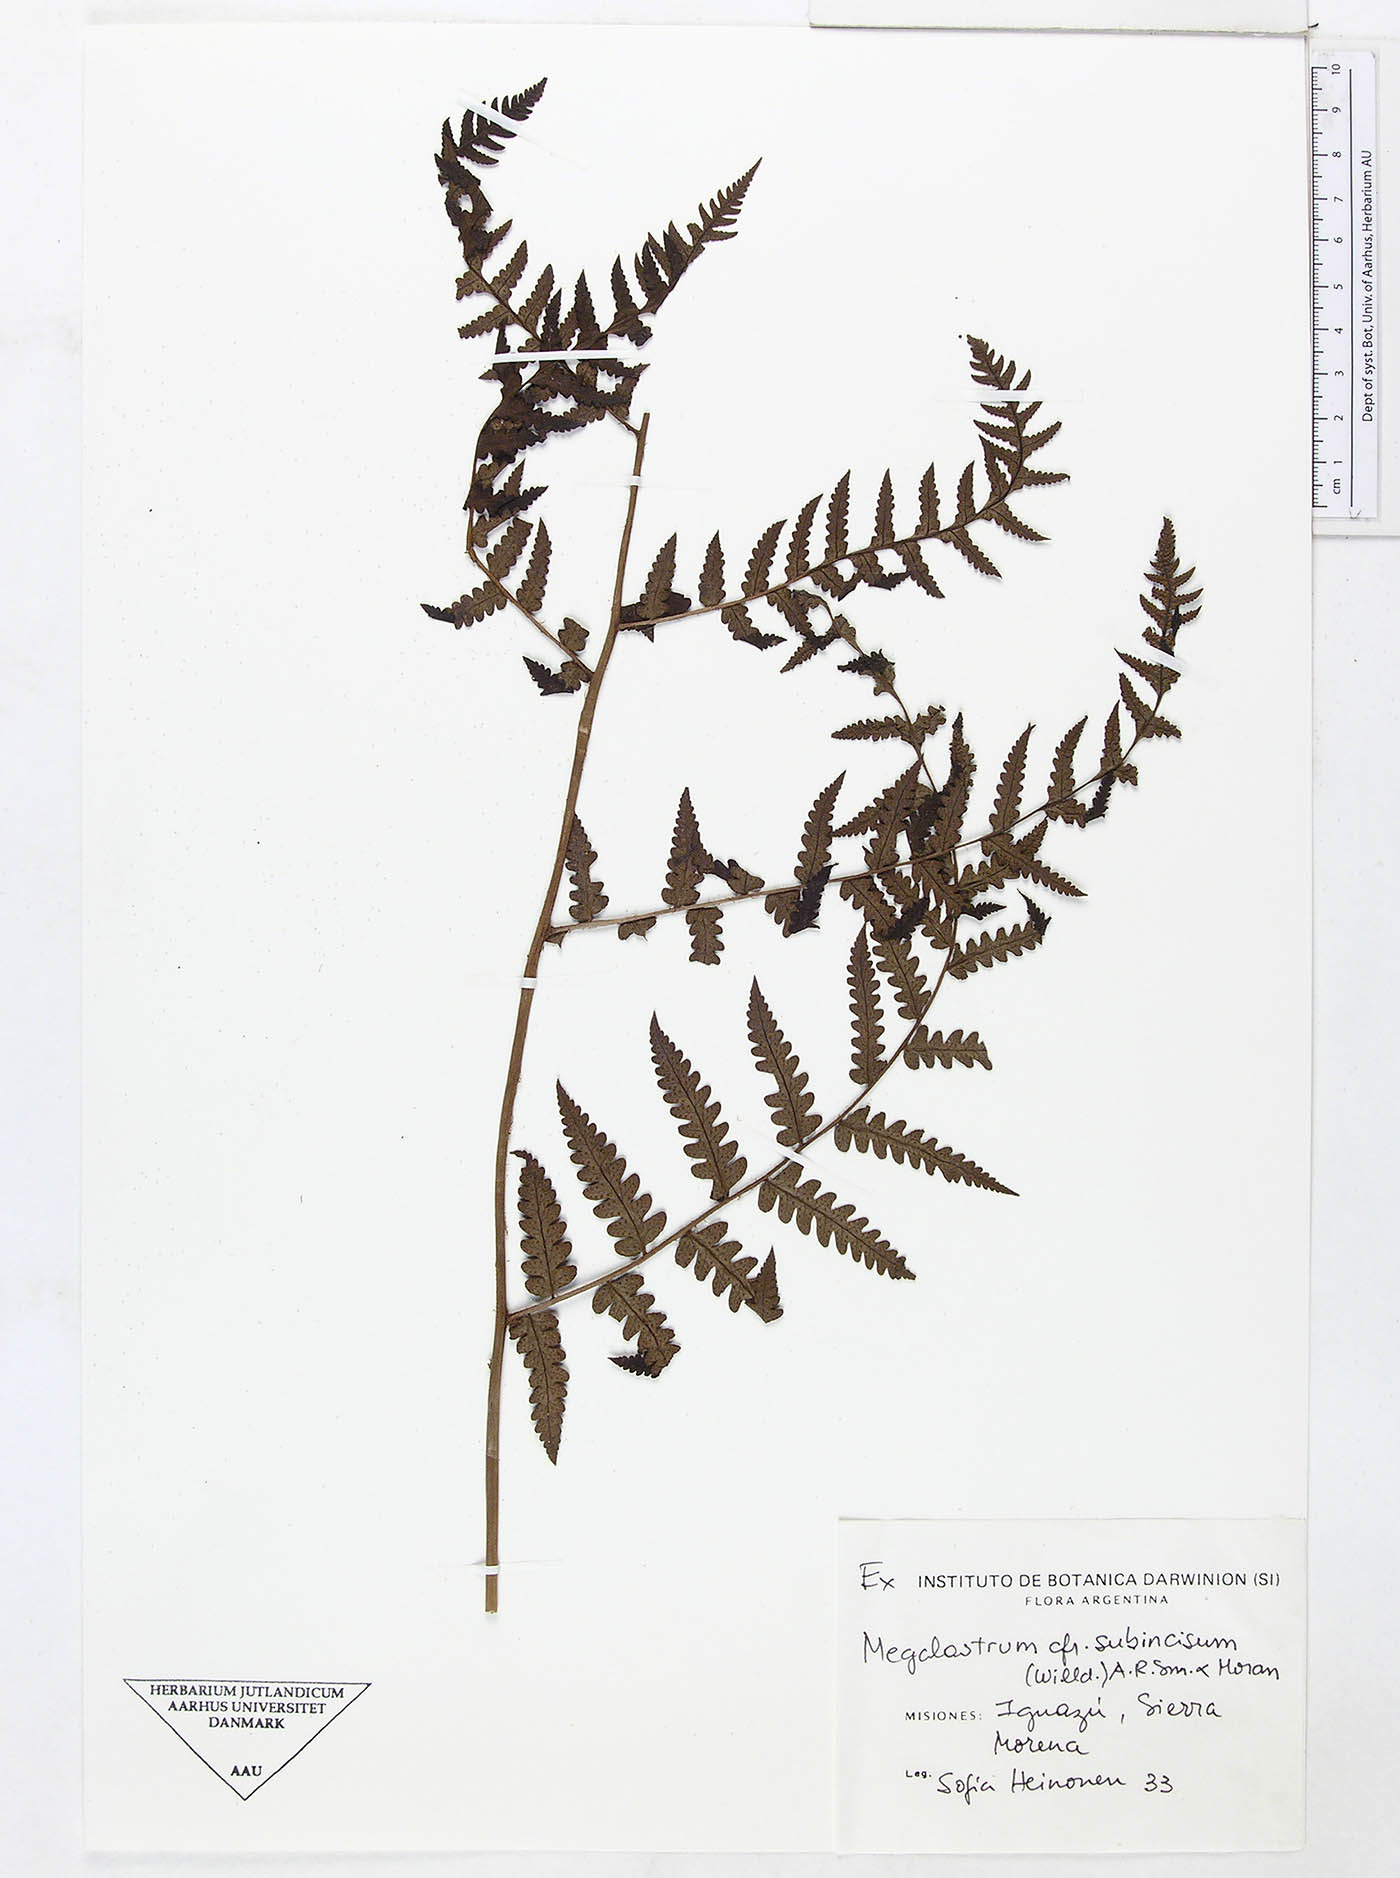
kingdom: Plantae
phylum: Tracheophyta
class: Polypodiopsida
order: Polypodiales
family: Dryopteridaceae
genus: Megalastrum
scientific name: Megalastrum connexum
